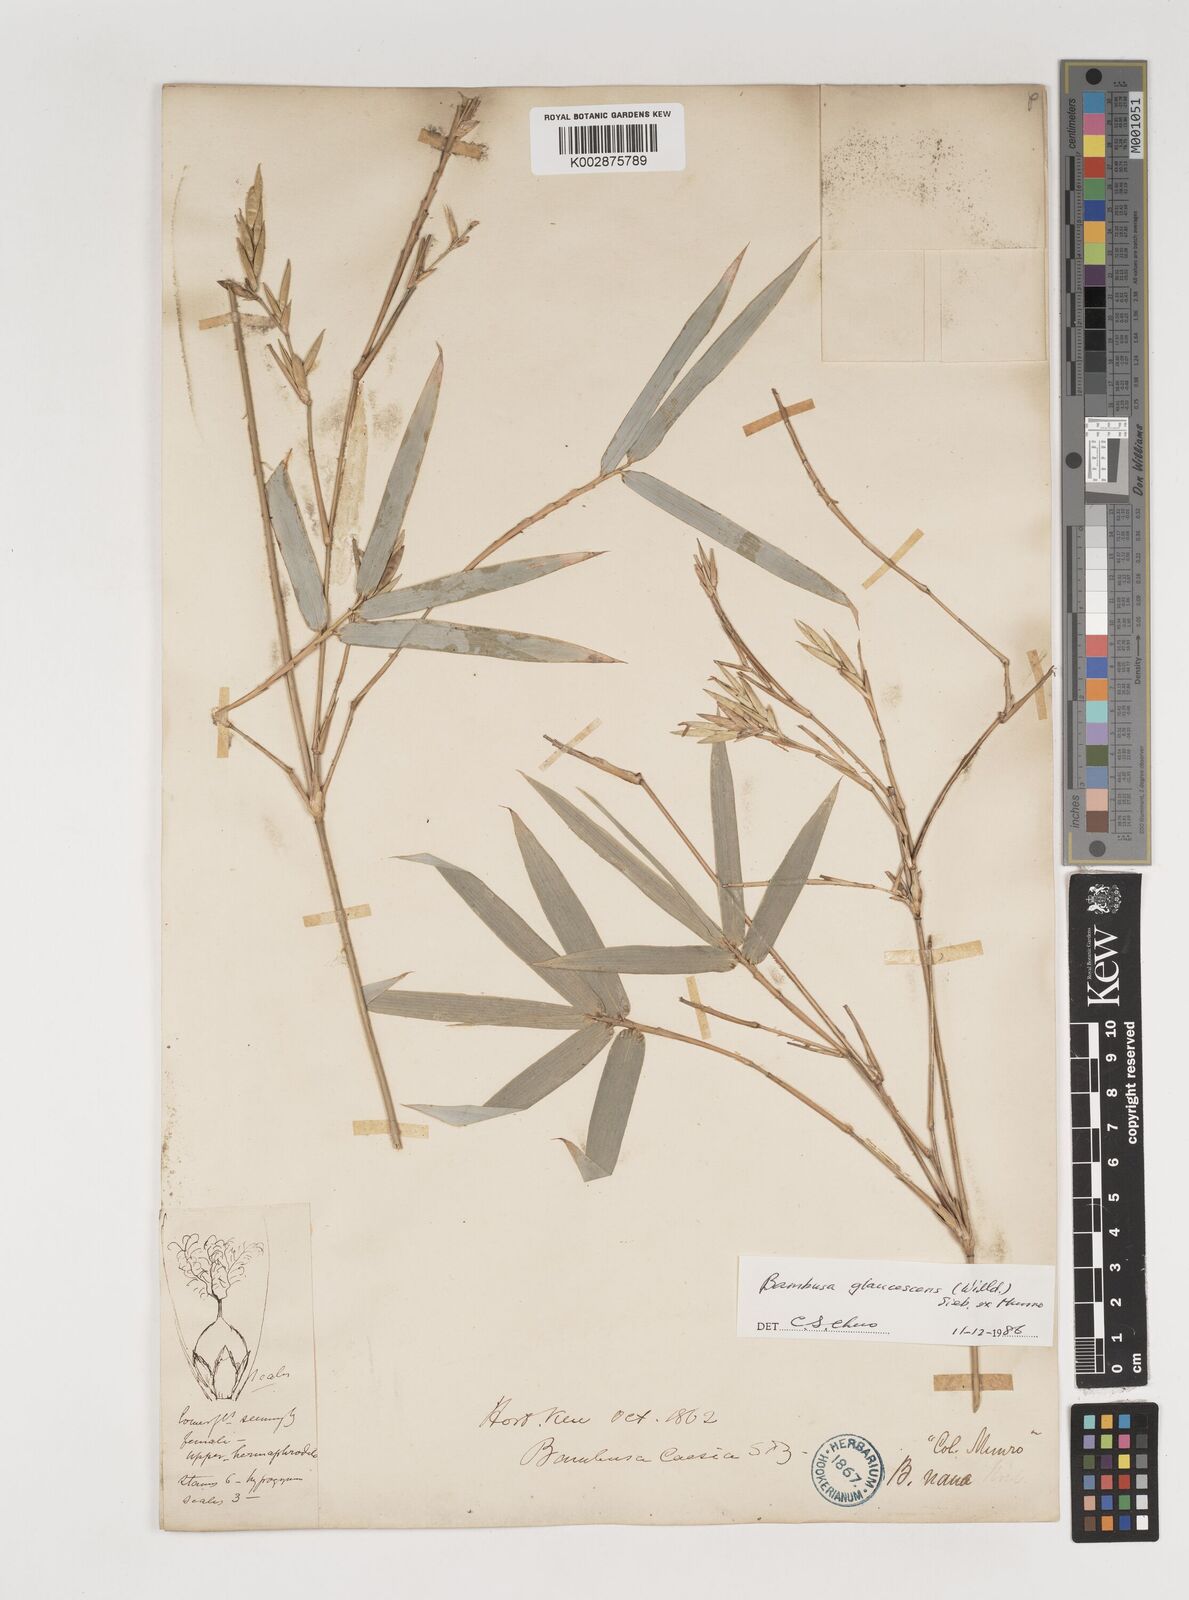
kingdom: Plantae
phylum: Tracheophyta
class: Liliopsida
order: Poales
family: Poaceae
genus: Bambusa
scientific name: Bambusa multiplex
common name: Hedge bamboo
